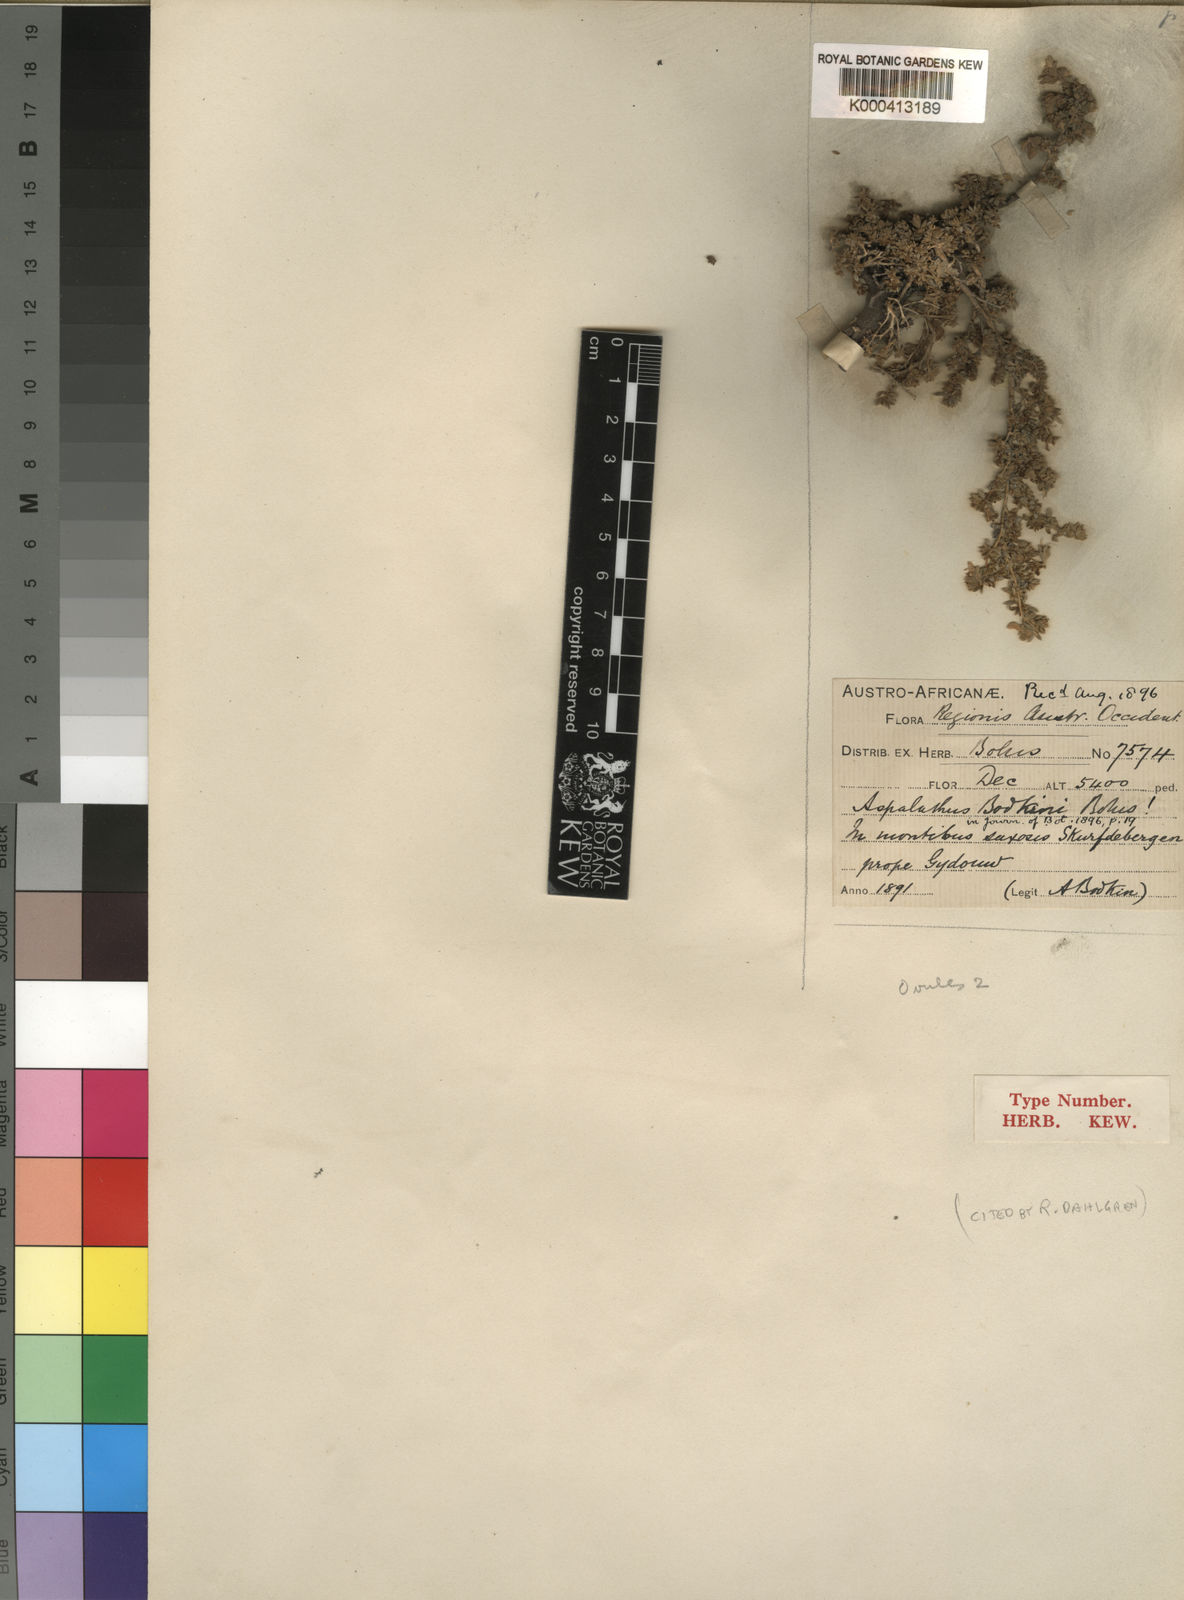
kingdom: Plantae
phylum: Tracheophyta
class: Magnoliopsida
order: Fabales
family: Fabaceae
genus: Aspalathus
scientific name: Aspalathus bodkinii
